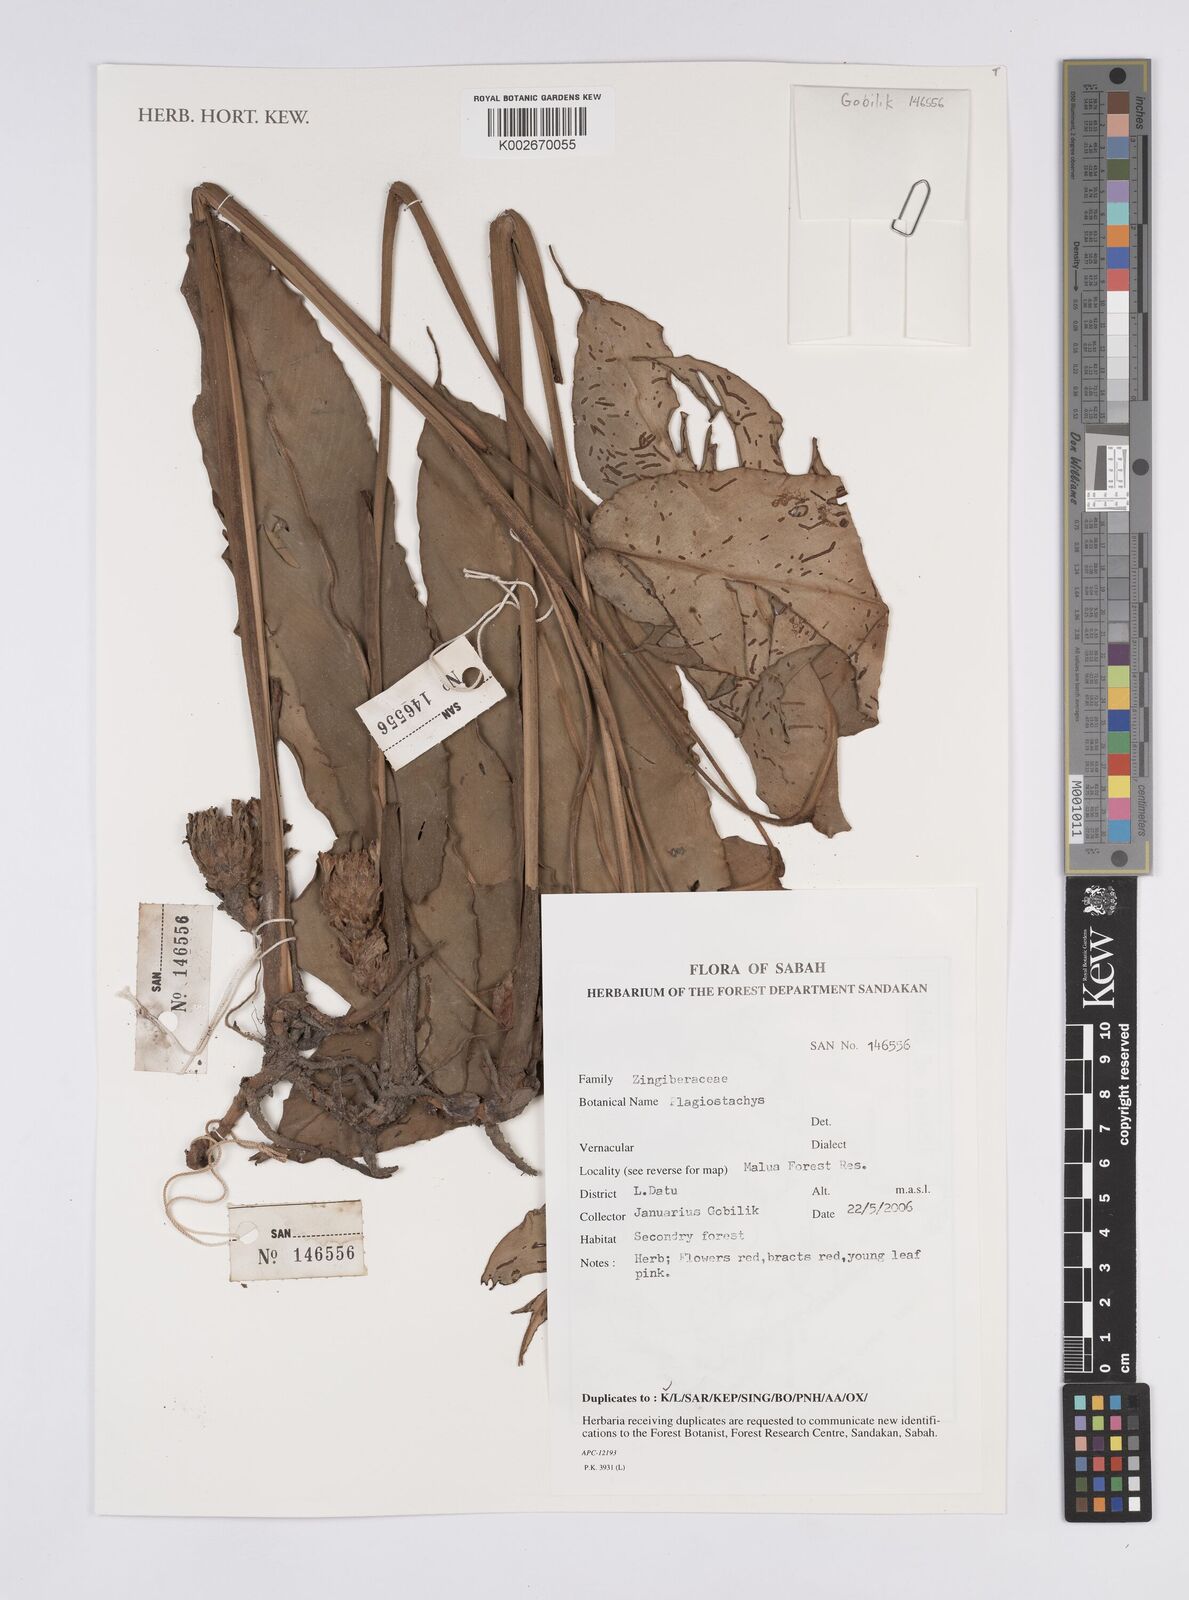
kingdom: Plantae
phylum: Tracheophyta
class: Liliopsida
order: Zingiberales
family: Zingiberaceae
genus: Plagiostachys
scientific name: Plagiostachys
